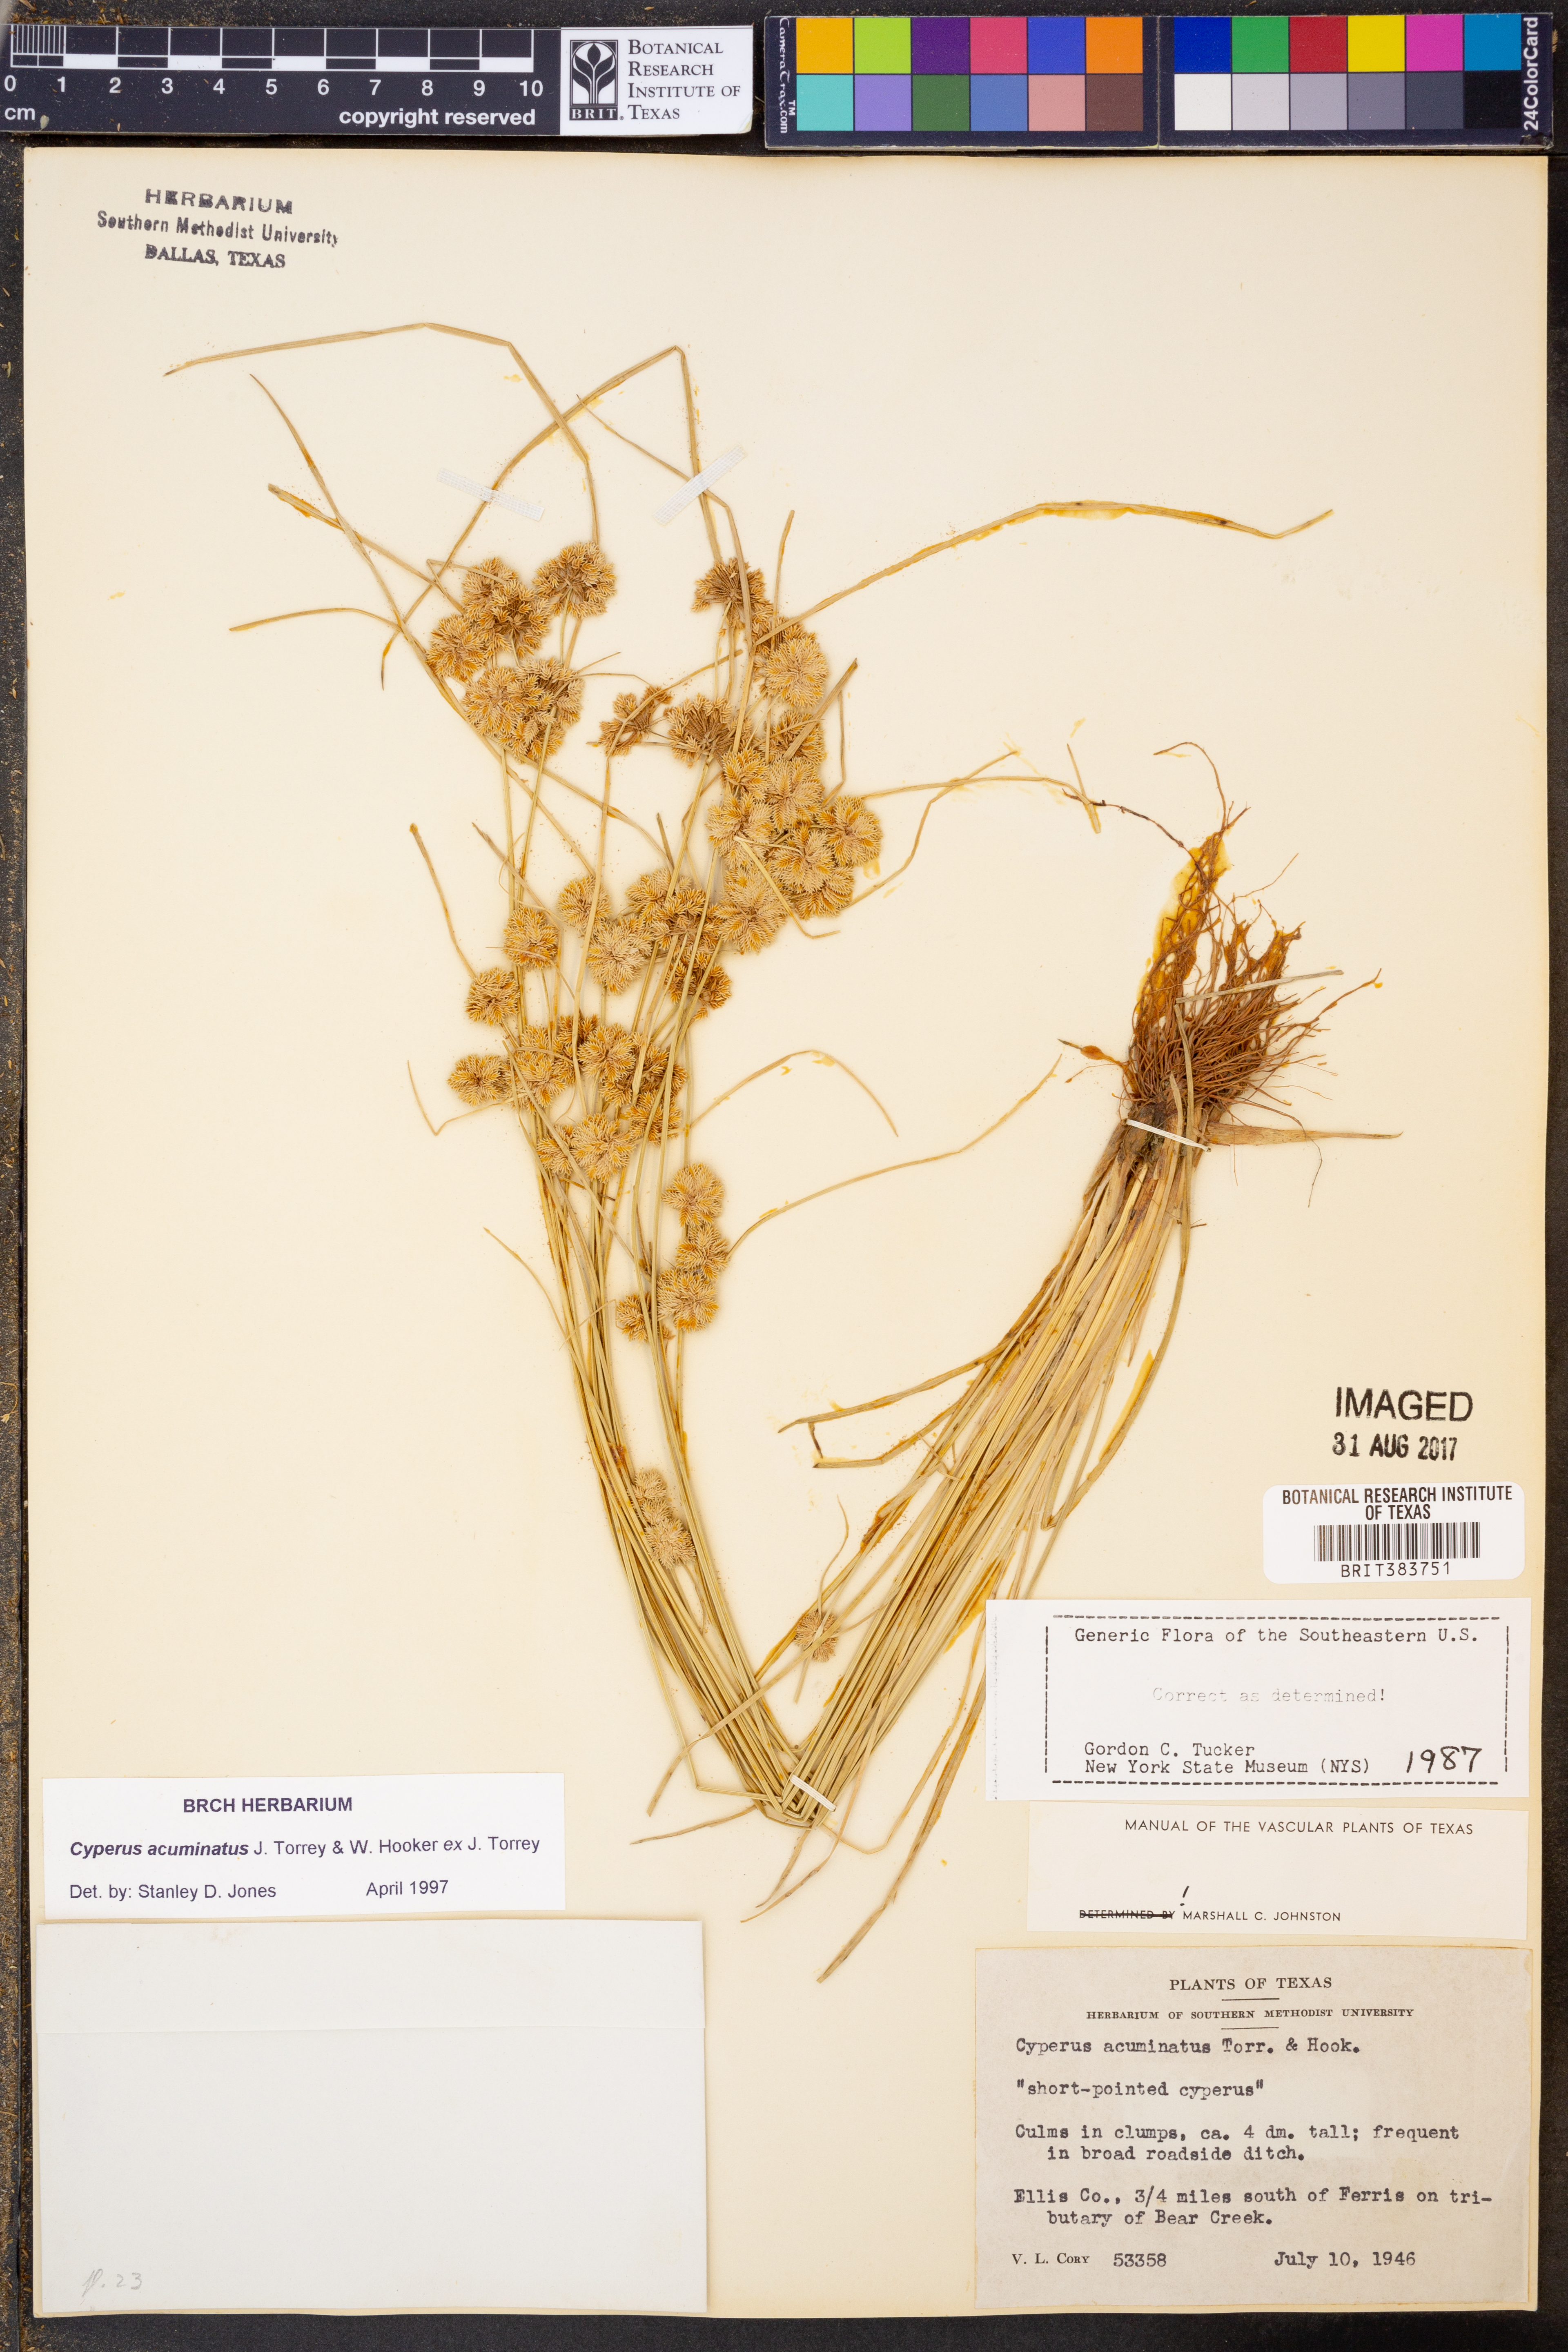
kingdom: Plantae
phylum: Tracheophyta
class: Liliopsida
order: Poales
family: Cyperaceae
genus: Cyperus
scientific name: Cyperus acuminatus
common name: Short-pointed cyperus
